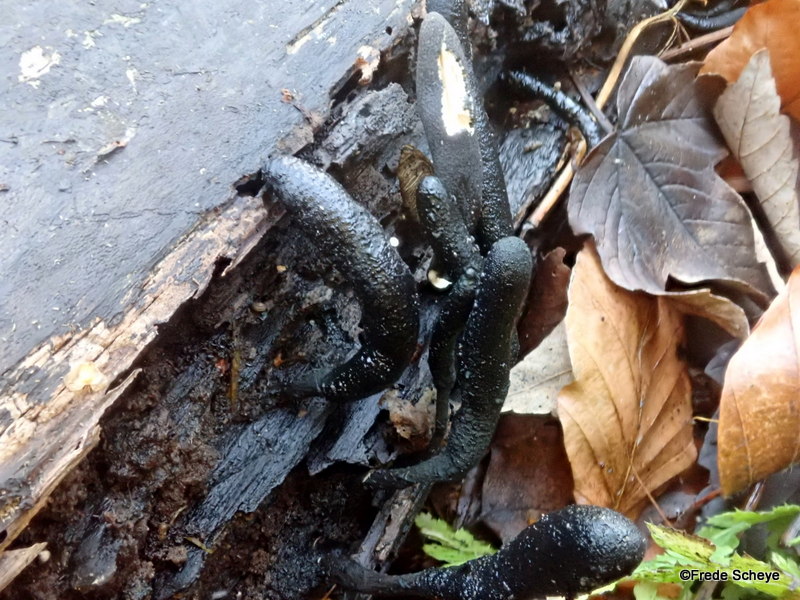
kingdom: Fungi
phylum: Ascomycota
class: Sordariomycetes
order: Xylariales
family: Xylariaceae
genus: Xylaria
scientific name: Xylaria longipes
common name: slank stødsvamp
